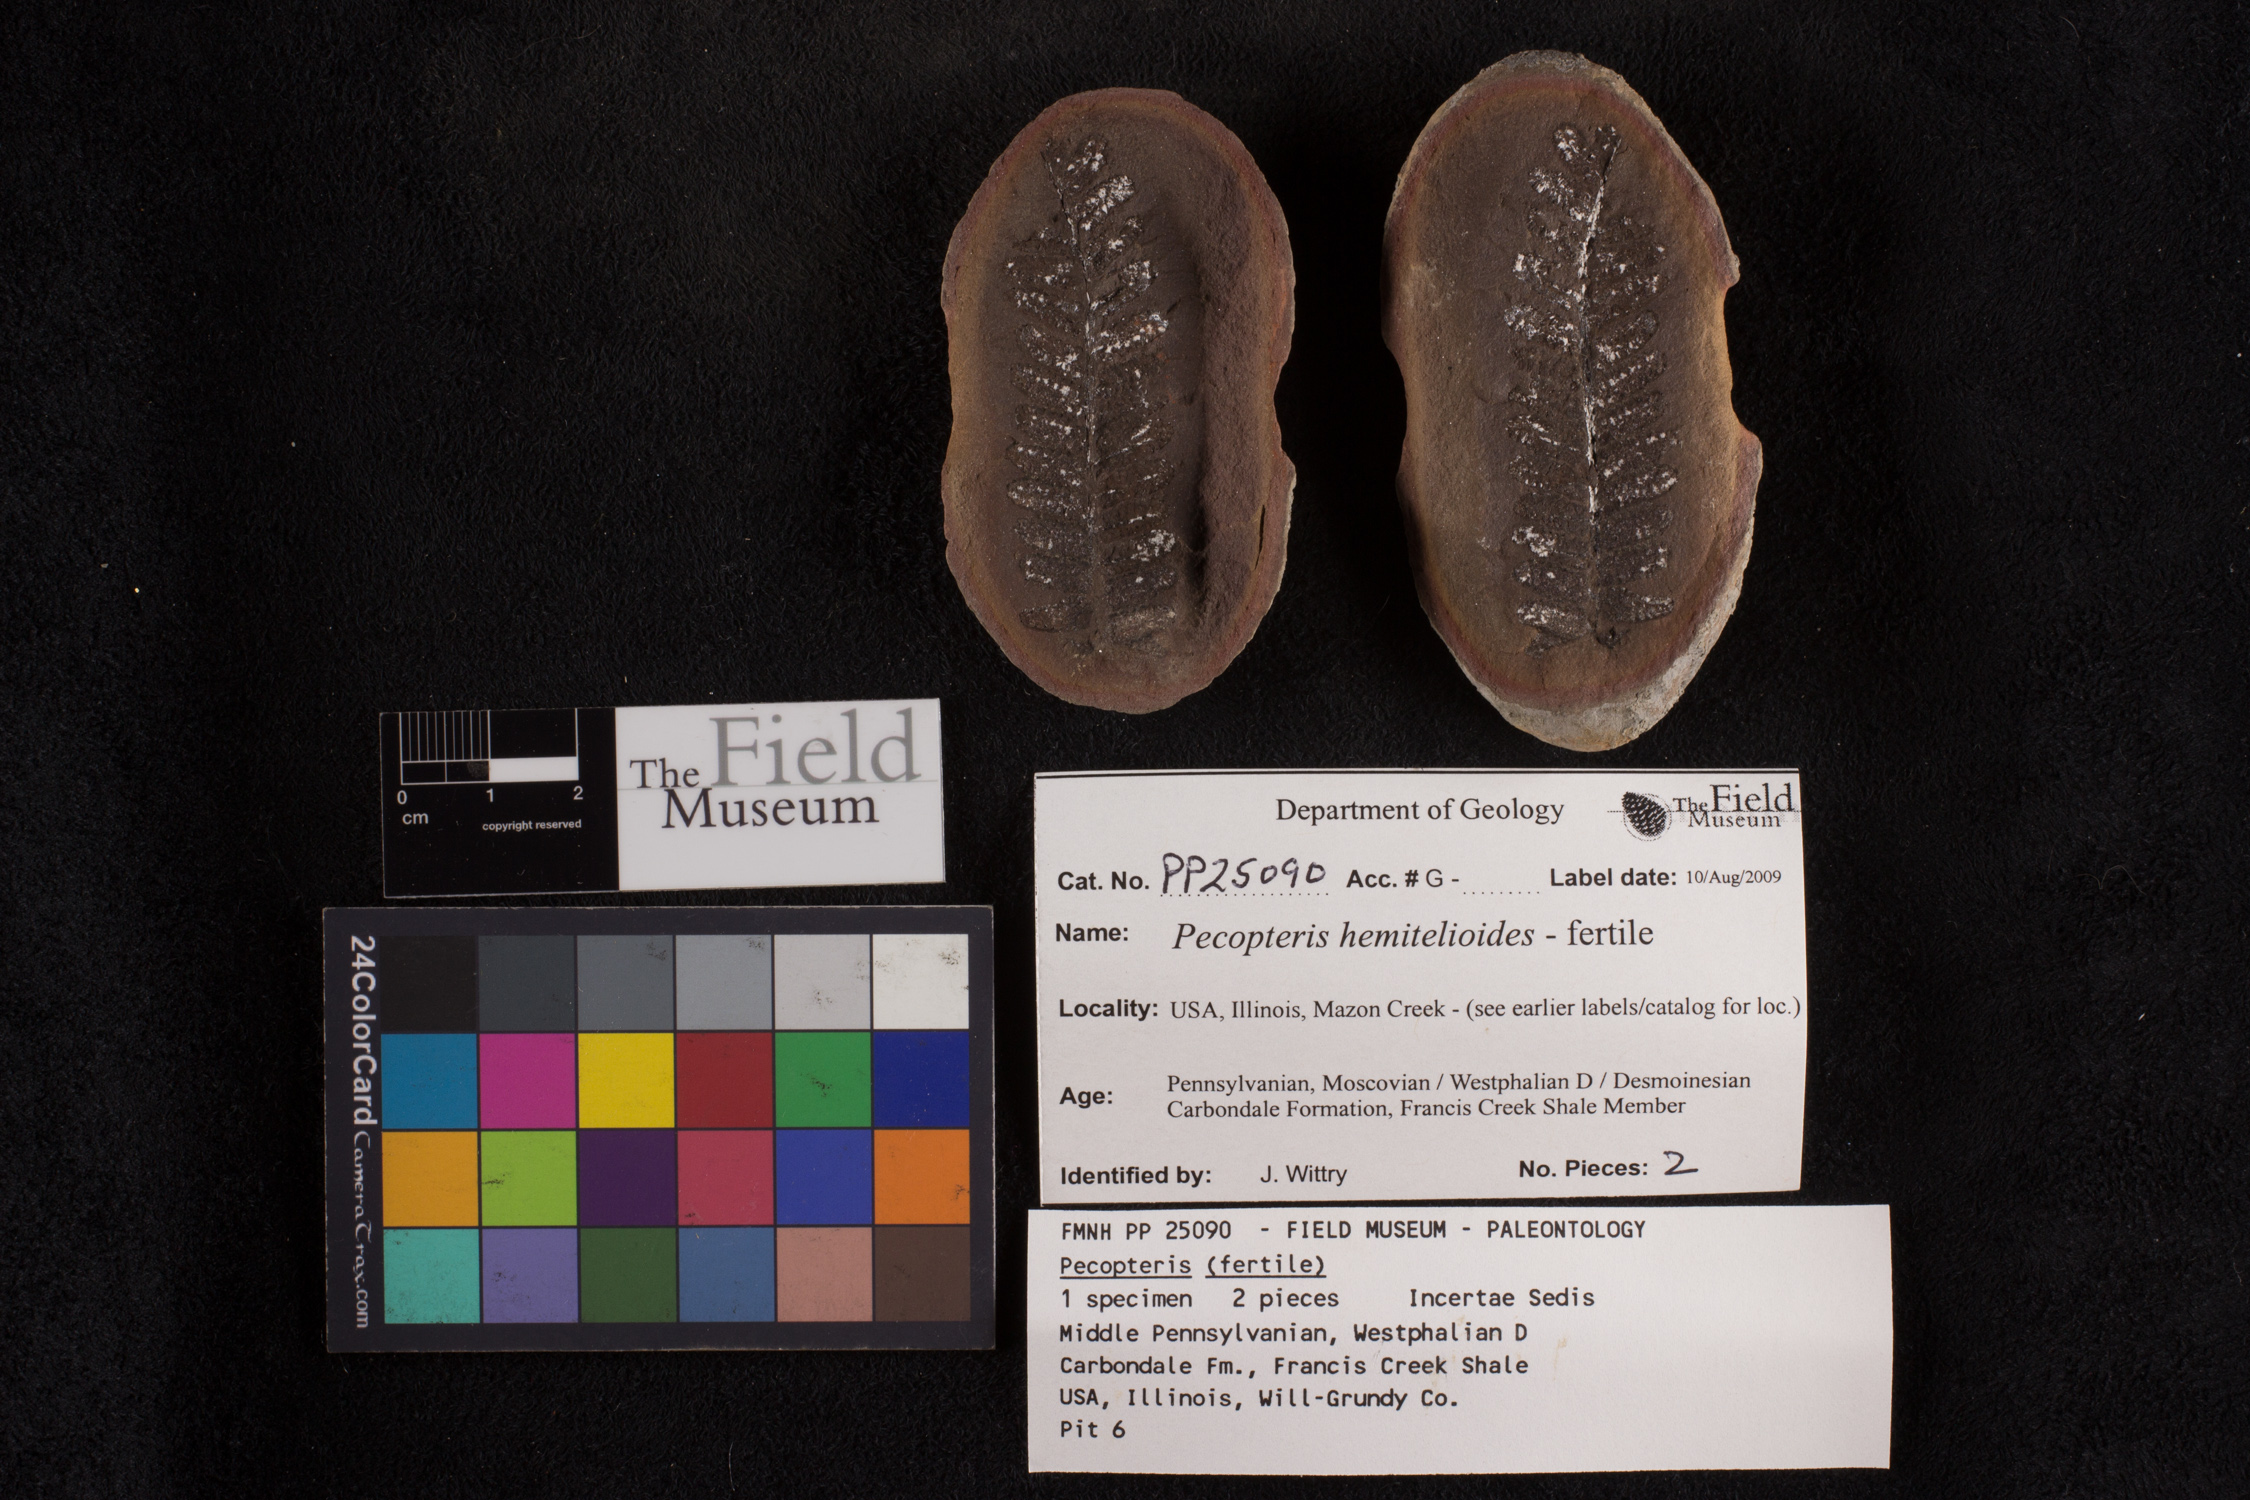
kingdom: Plantae
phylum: Tracheophyta
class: Polypodiopsida
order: Marattiales
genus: Cyathocarpus
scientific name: Cyathocarpus
